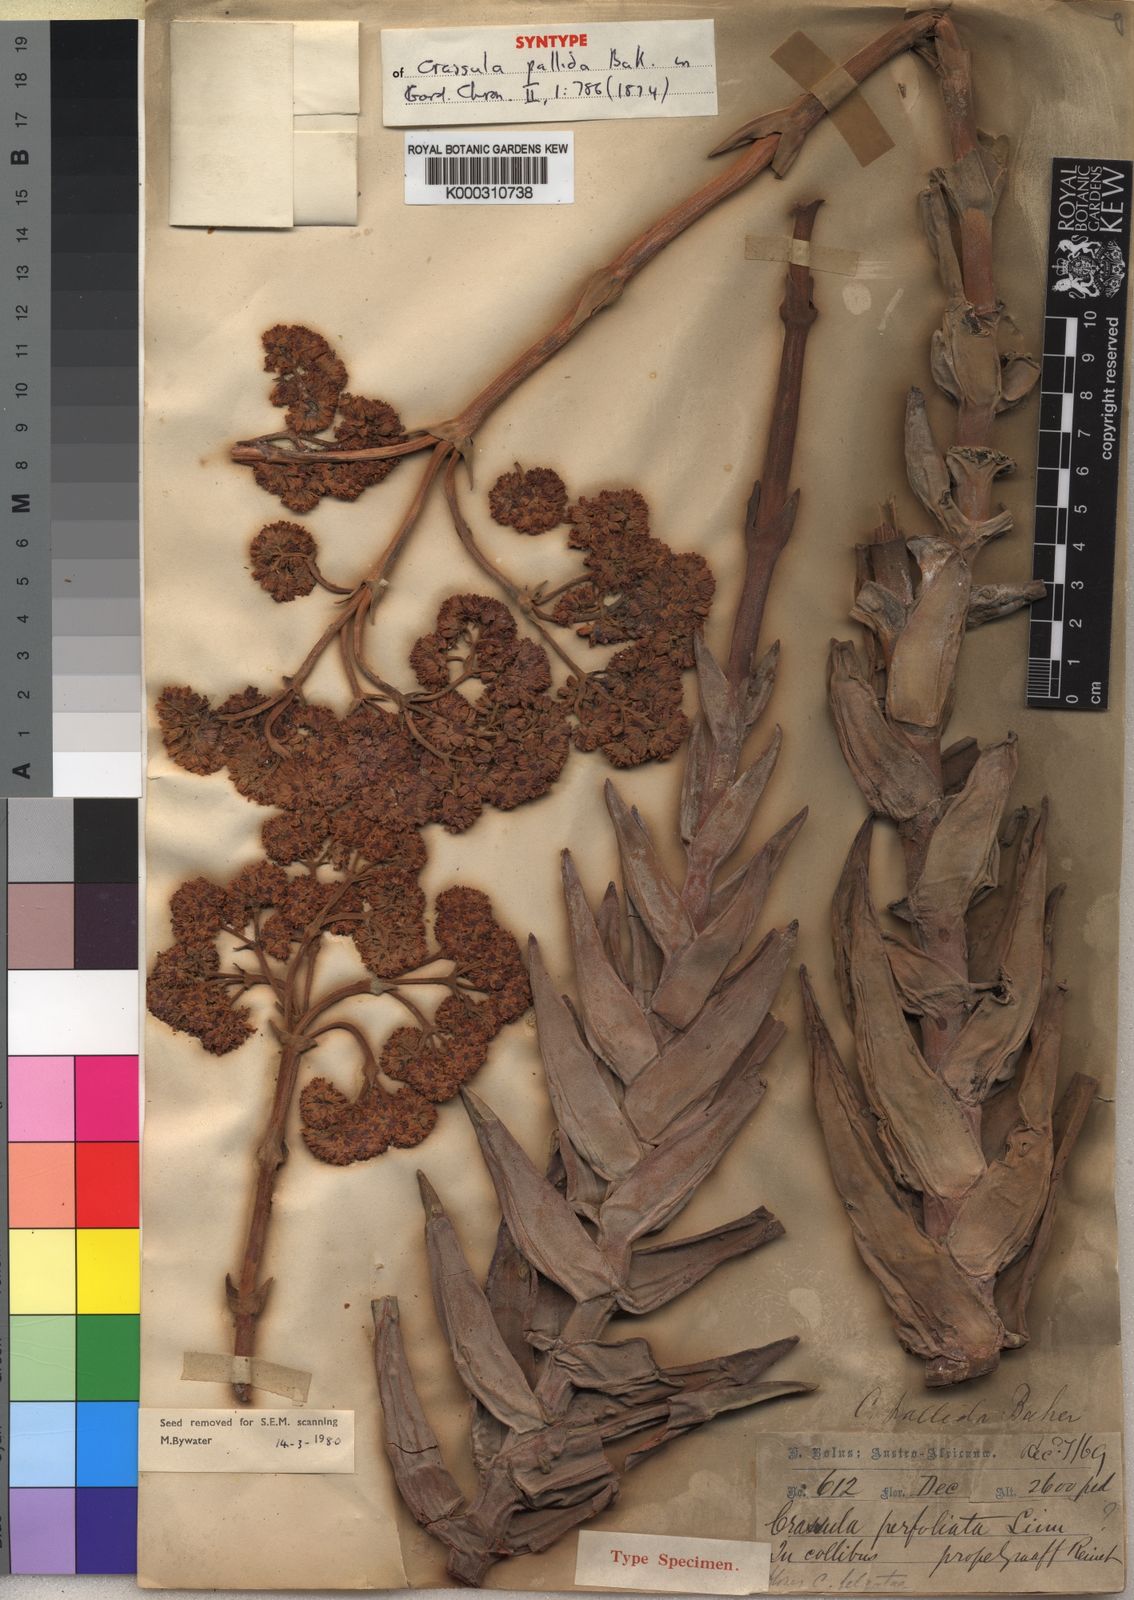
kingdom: Plantae
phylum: Tracheophyta
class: Magnoliopsida
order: Saxifragales
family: Crassulaceae
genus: Crassula
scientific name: Crassula perfoliata
